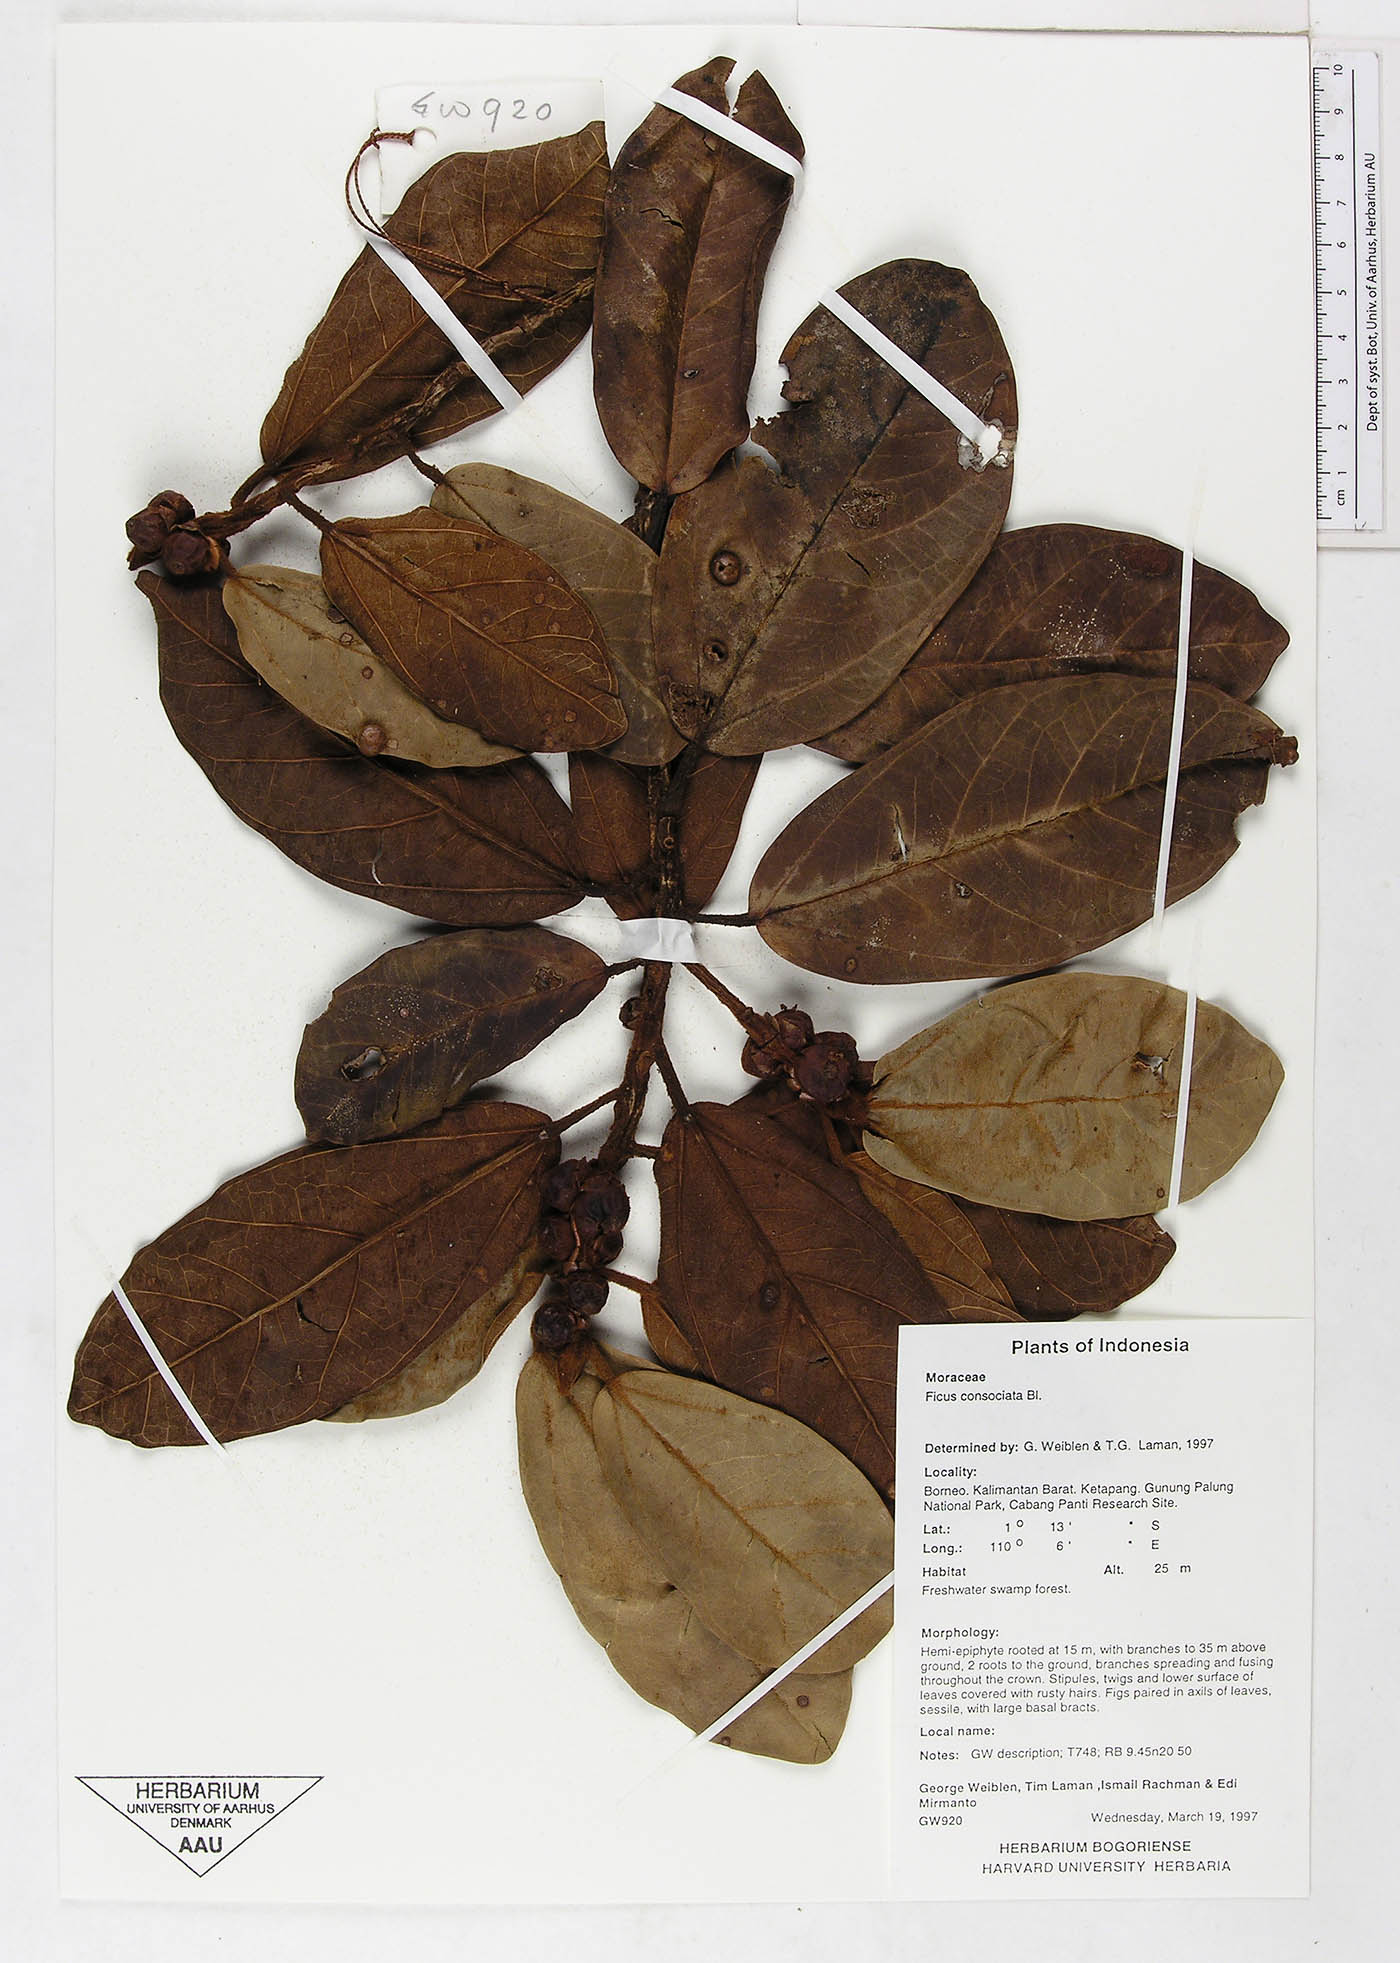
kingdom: Plantae
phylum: Tracheophyta
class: Magnoliopsida
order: Rosales
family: Moraceae
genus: Ficus
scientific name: Ficus consociata
